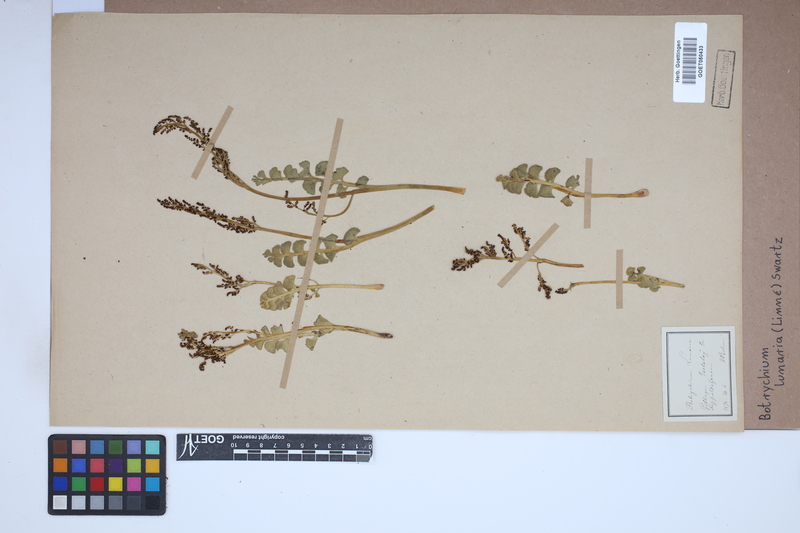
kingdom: Plantae
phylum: Tracheophyta
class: Polypodiopsida
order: Ophioglossales
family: Ophioglossaceae
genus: Botrychium
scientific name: Botrychium lunaria
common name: Moonwort
